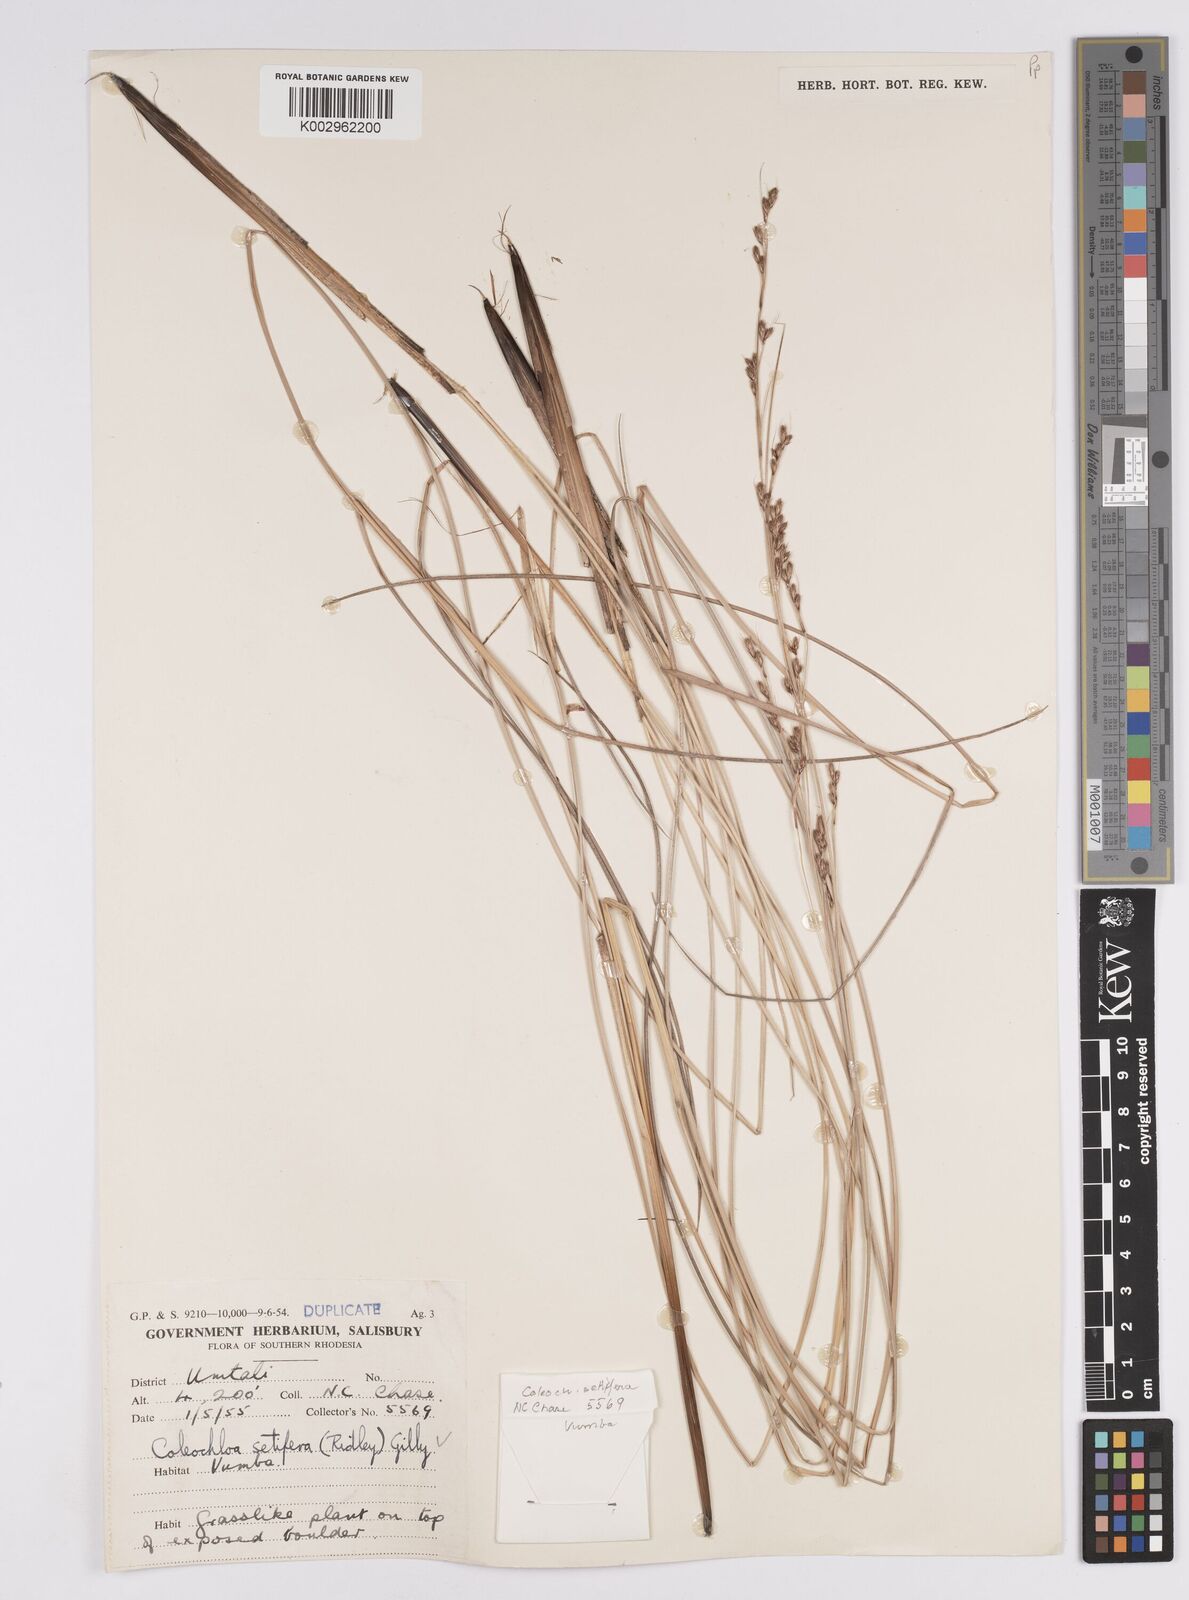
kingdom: Plantae
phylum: Tracheophyta
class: Liliopsida
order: Poales
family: Cyperaceae
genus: Coleochloa
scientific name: Coleochloa setifera
